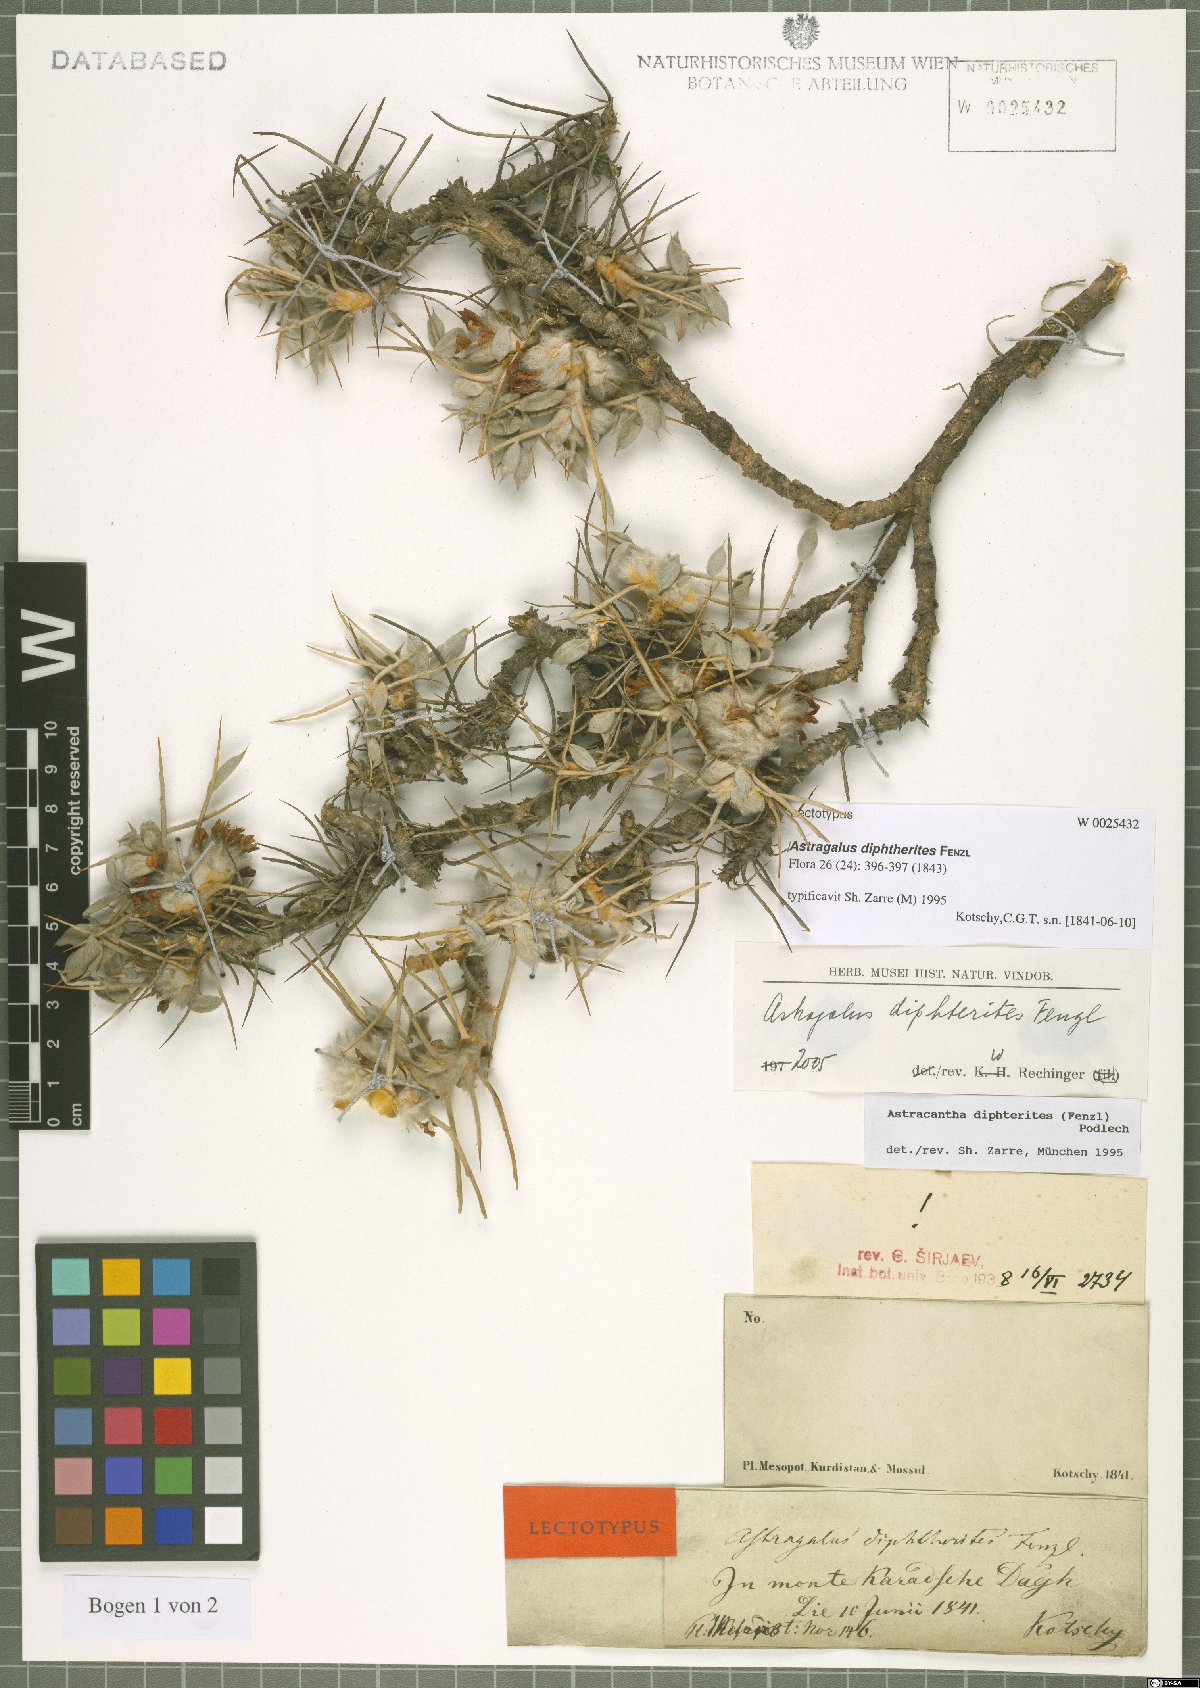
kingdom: Plantae
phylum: Tracheophyta
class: Magnoliopsida
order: Fabales
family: Fabaceae
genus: Astragalus
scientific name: Astragalus diphtherites
